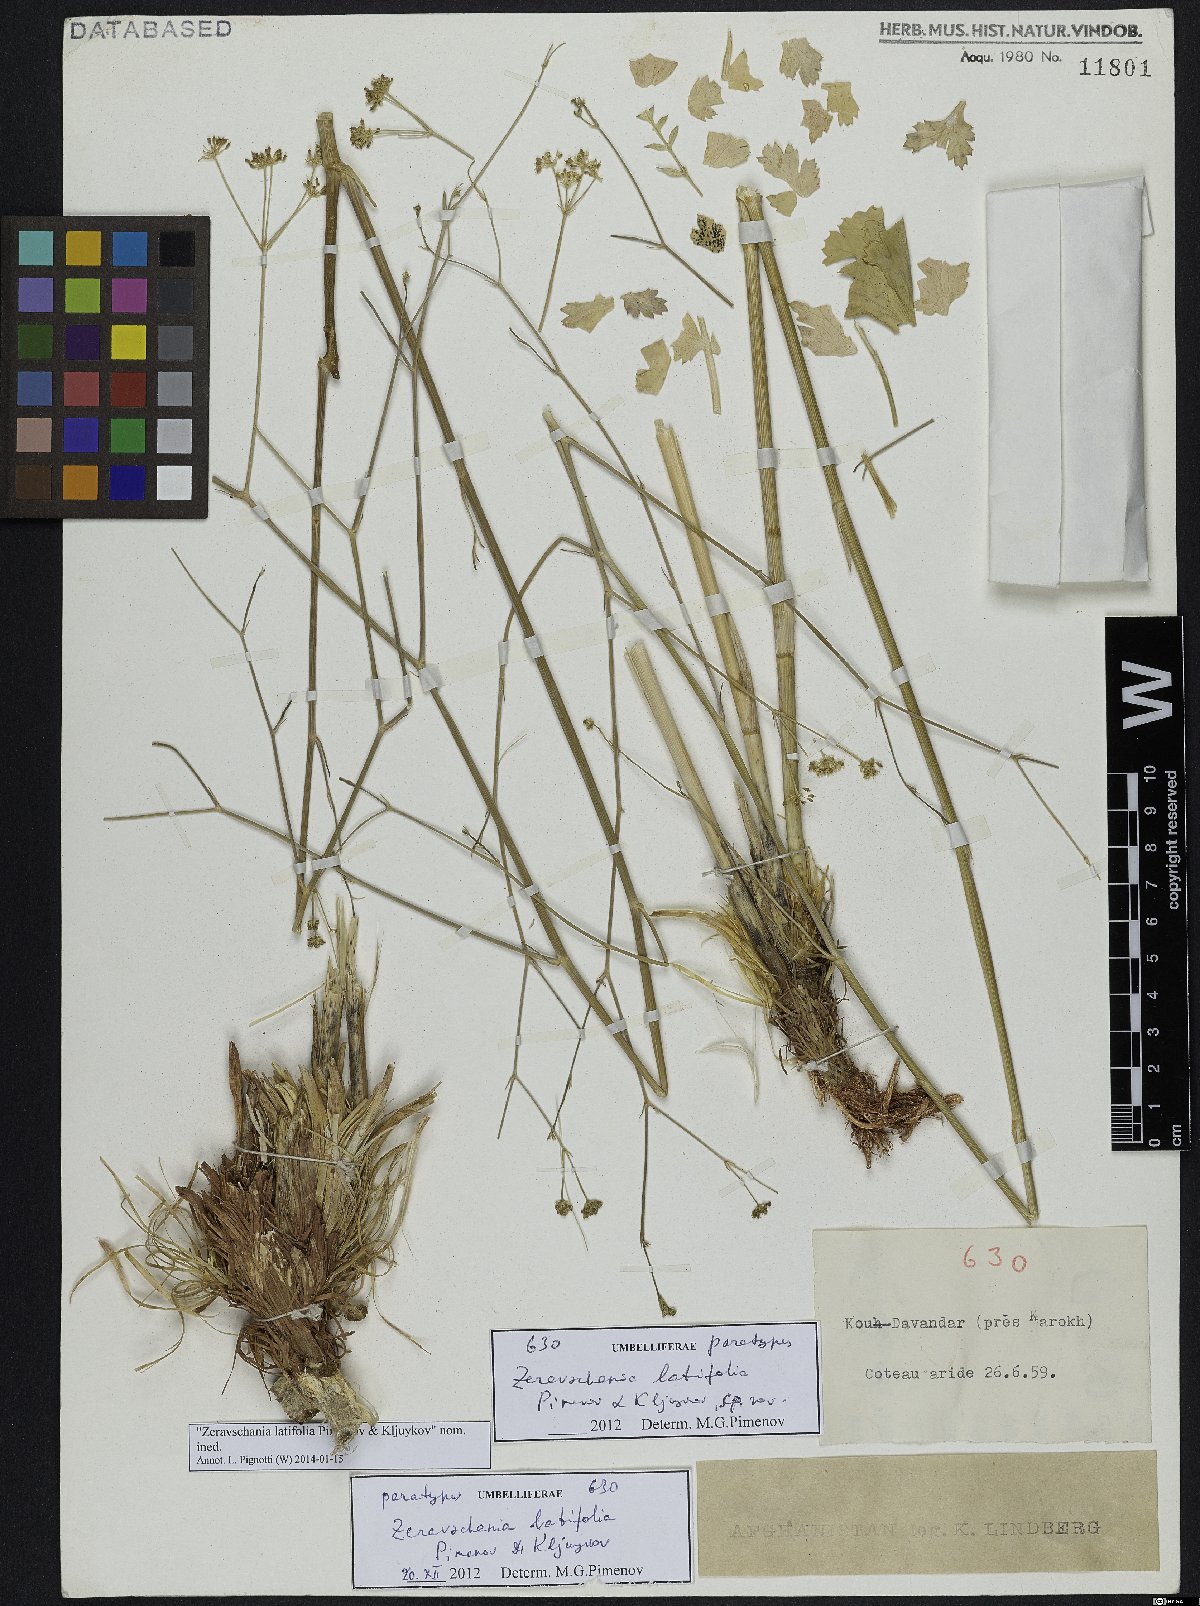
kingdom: Plantae
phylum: Tracheophyta
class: Magnoliopsida
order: Apiales
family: Apiaceae
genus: Zeravschania
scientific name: Zeravschania latifolia
